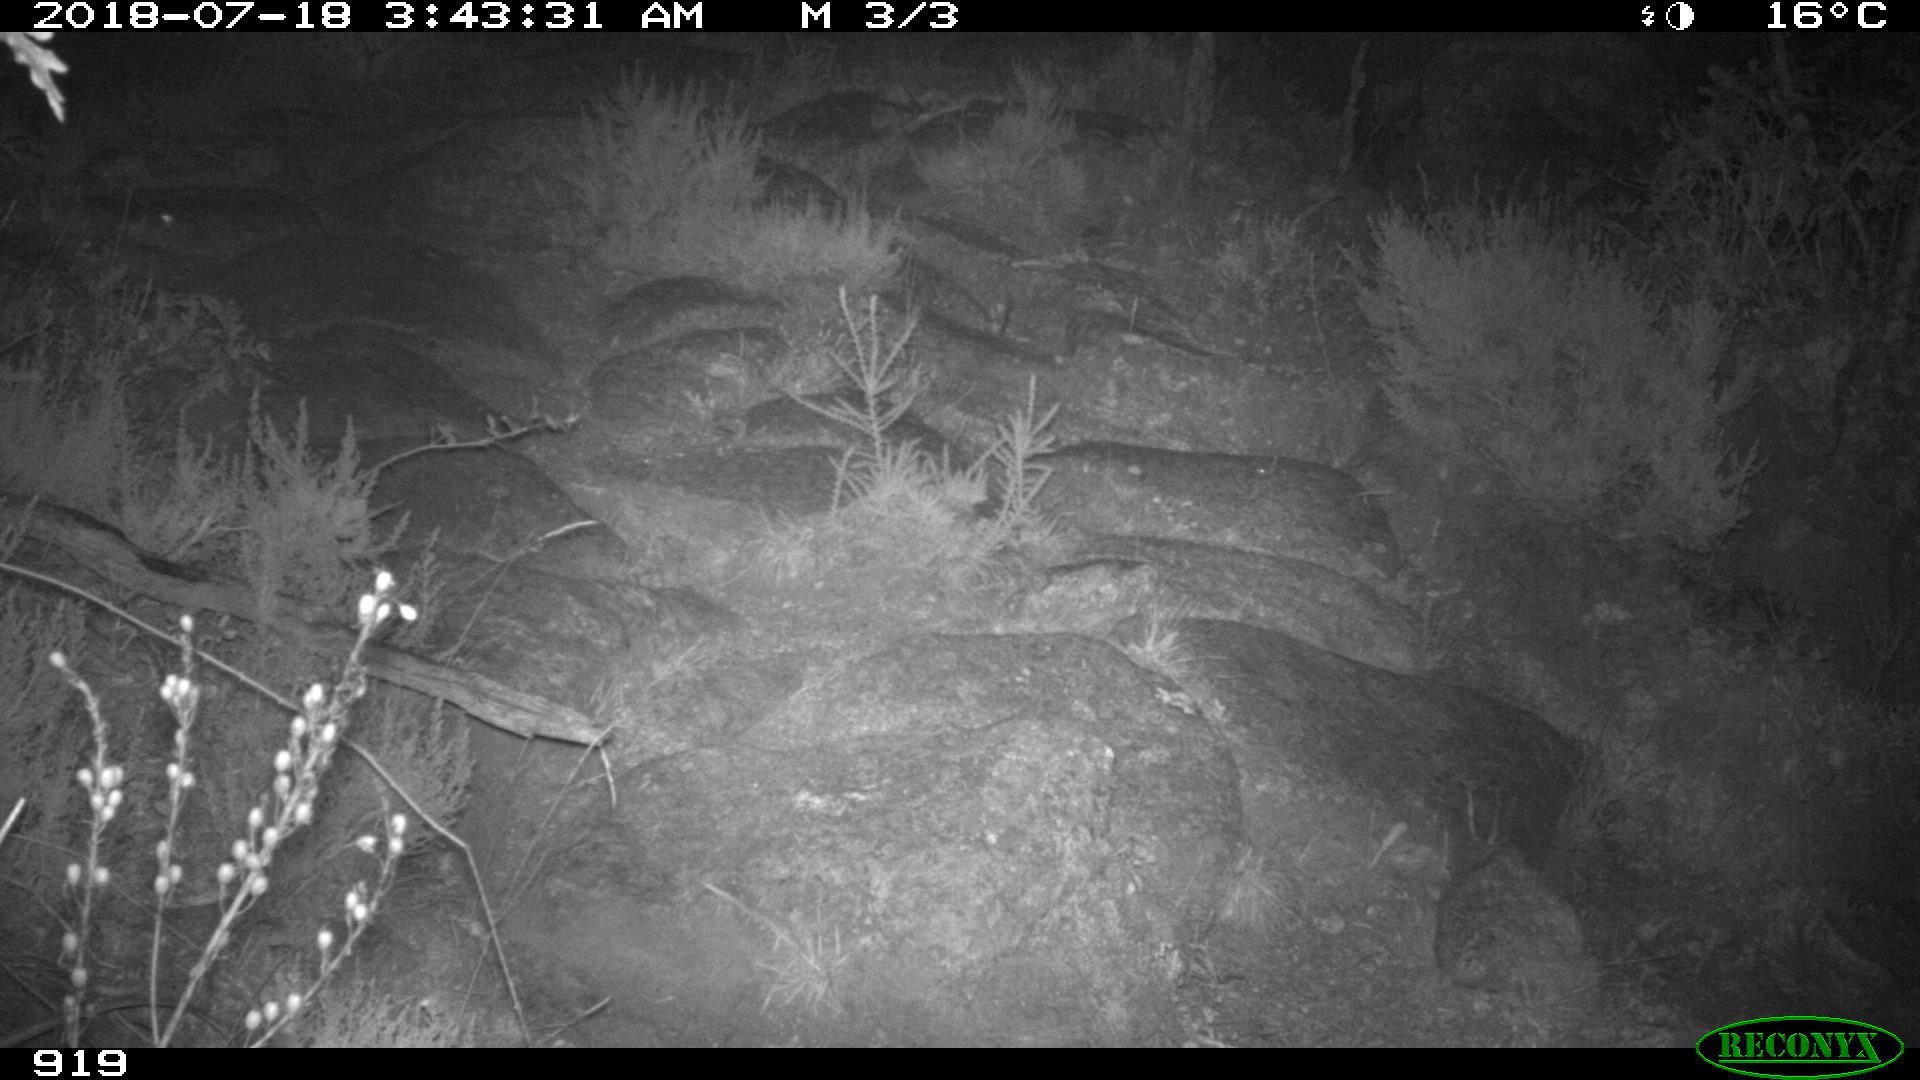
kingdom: Animalia
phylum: Chordata
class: Mammalia
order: Artiodactyla
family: Bovidae
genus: Bos
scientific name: Bos taurus
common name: Domesticated cattle
